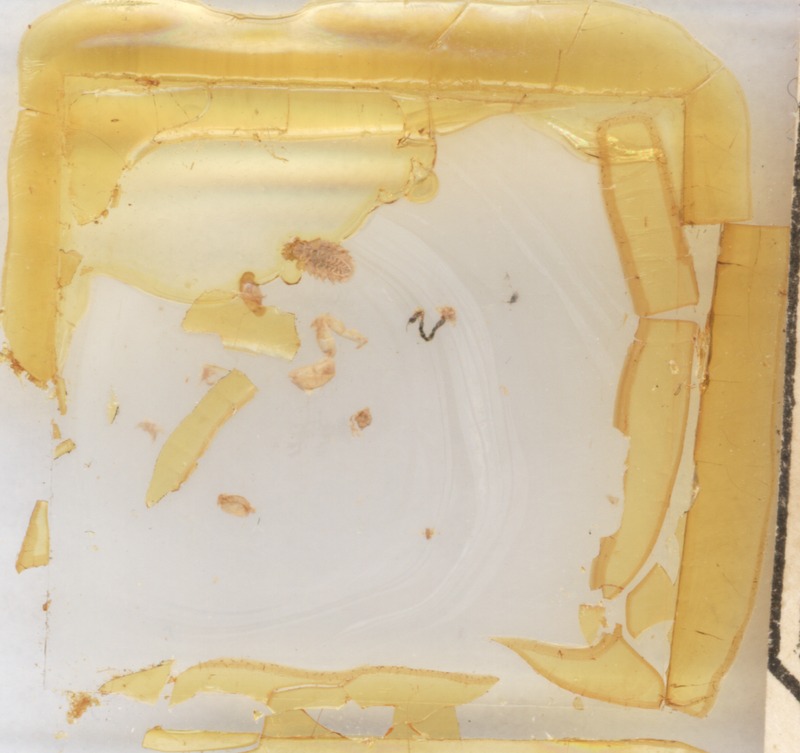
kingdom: Animalia
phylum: Arthropoda
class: Diplopoda
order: Glomerida
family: Glomeridae
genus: Glomeris
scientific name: Glomeris hexasticha
